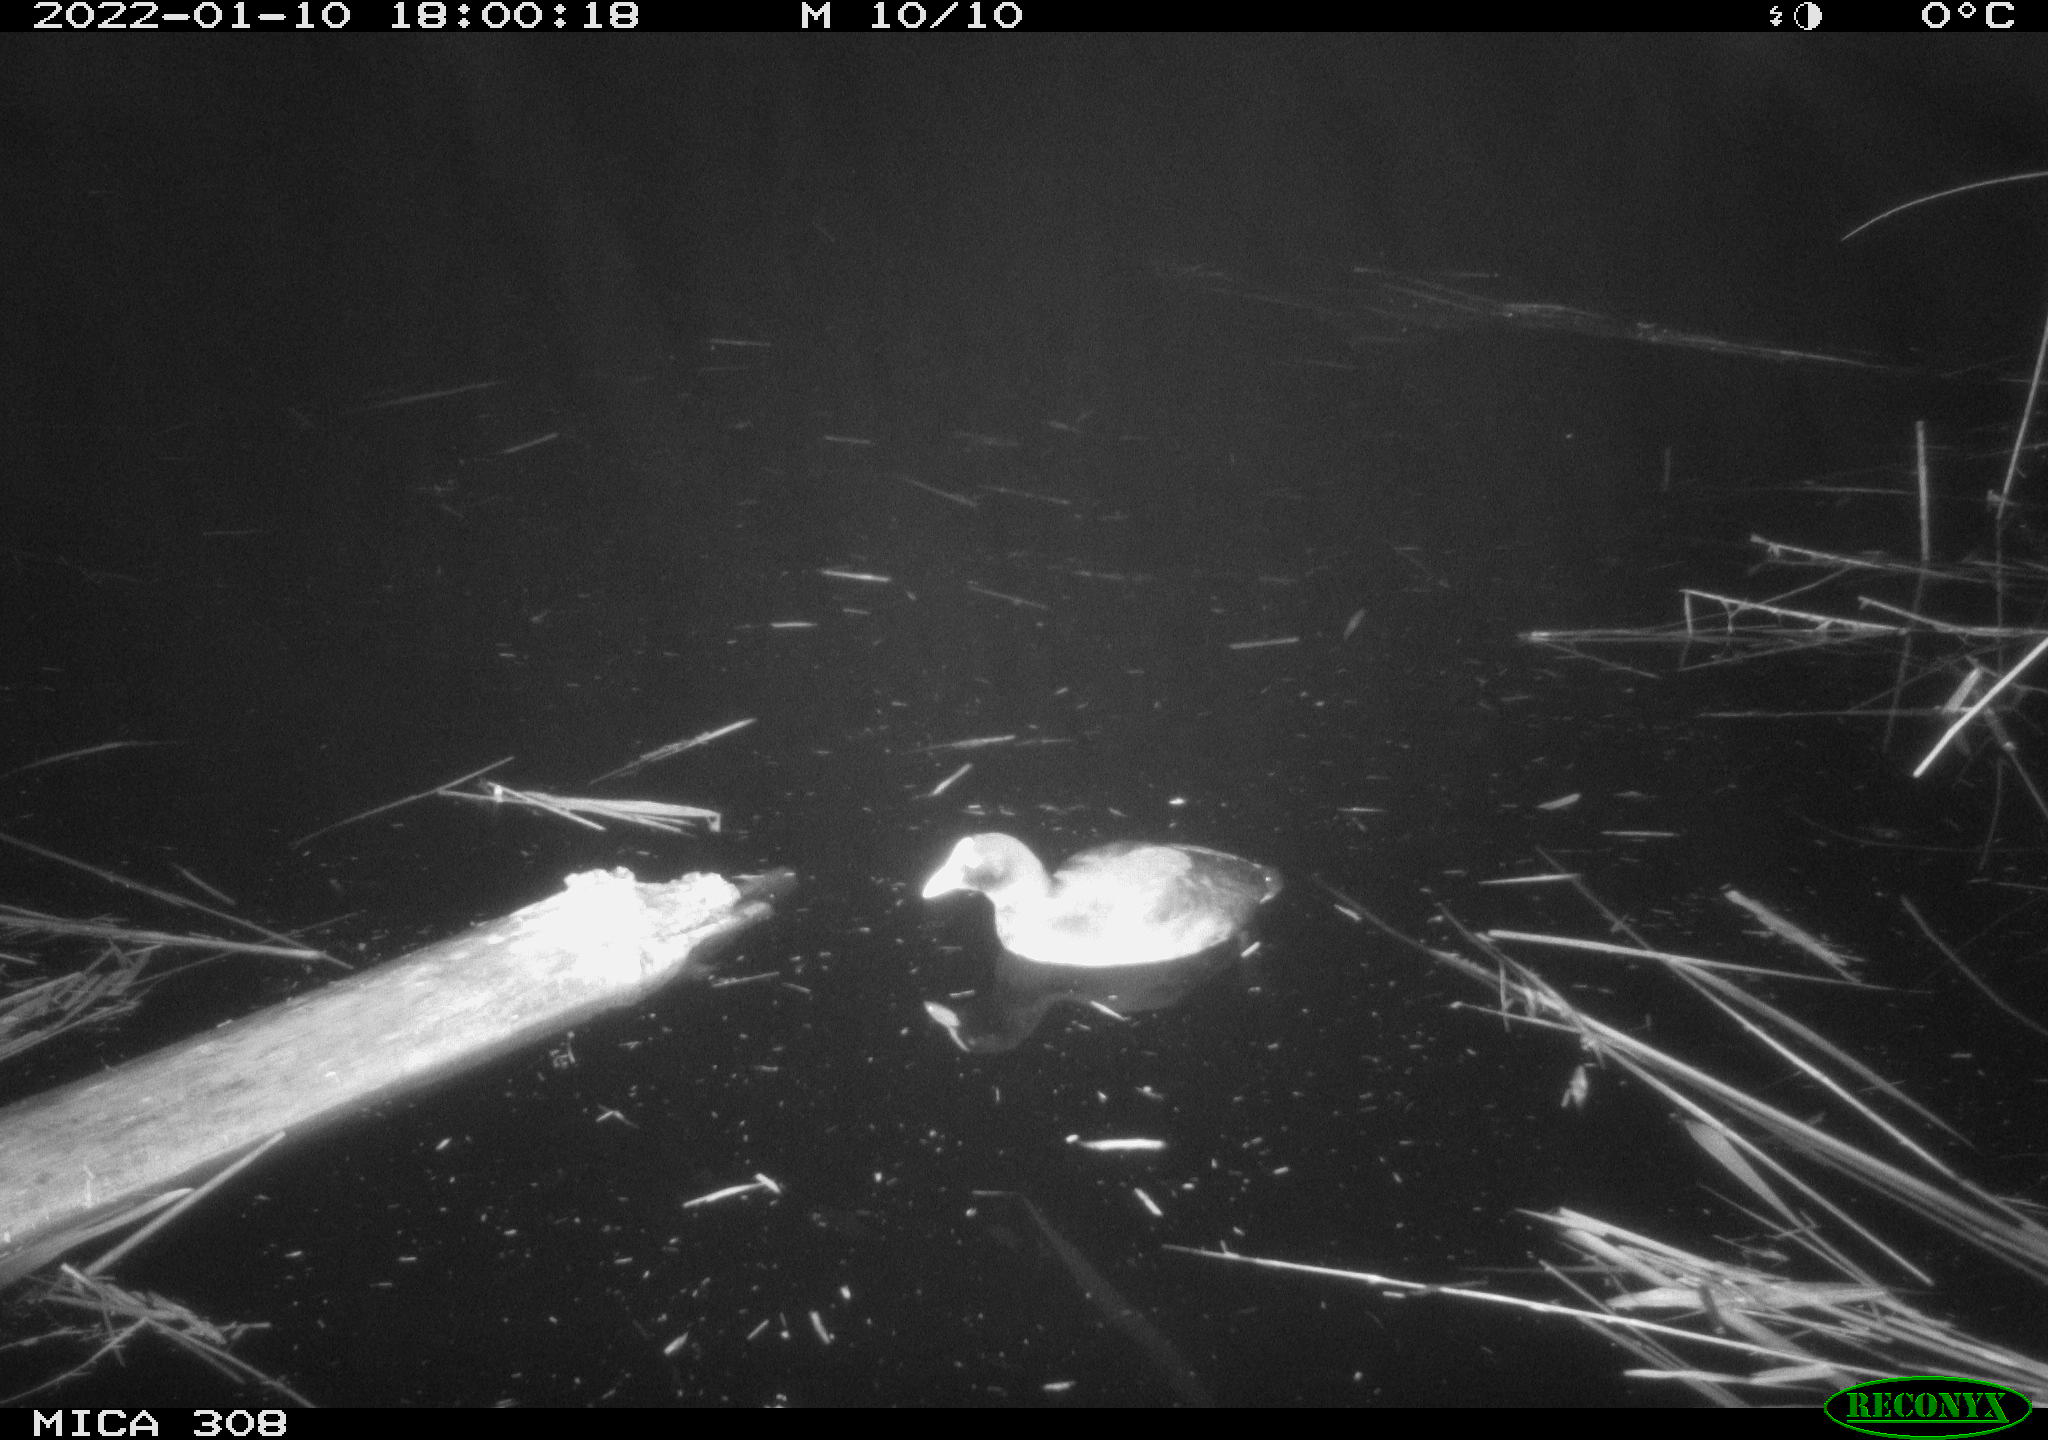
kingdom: Animalia
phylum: Chordata
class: Aves
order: Gruiformes
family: Rallidae
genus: Gallinula
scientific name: Gallinula chloropus
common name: Common moorhen
